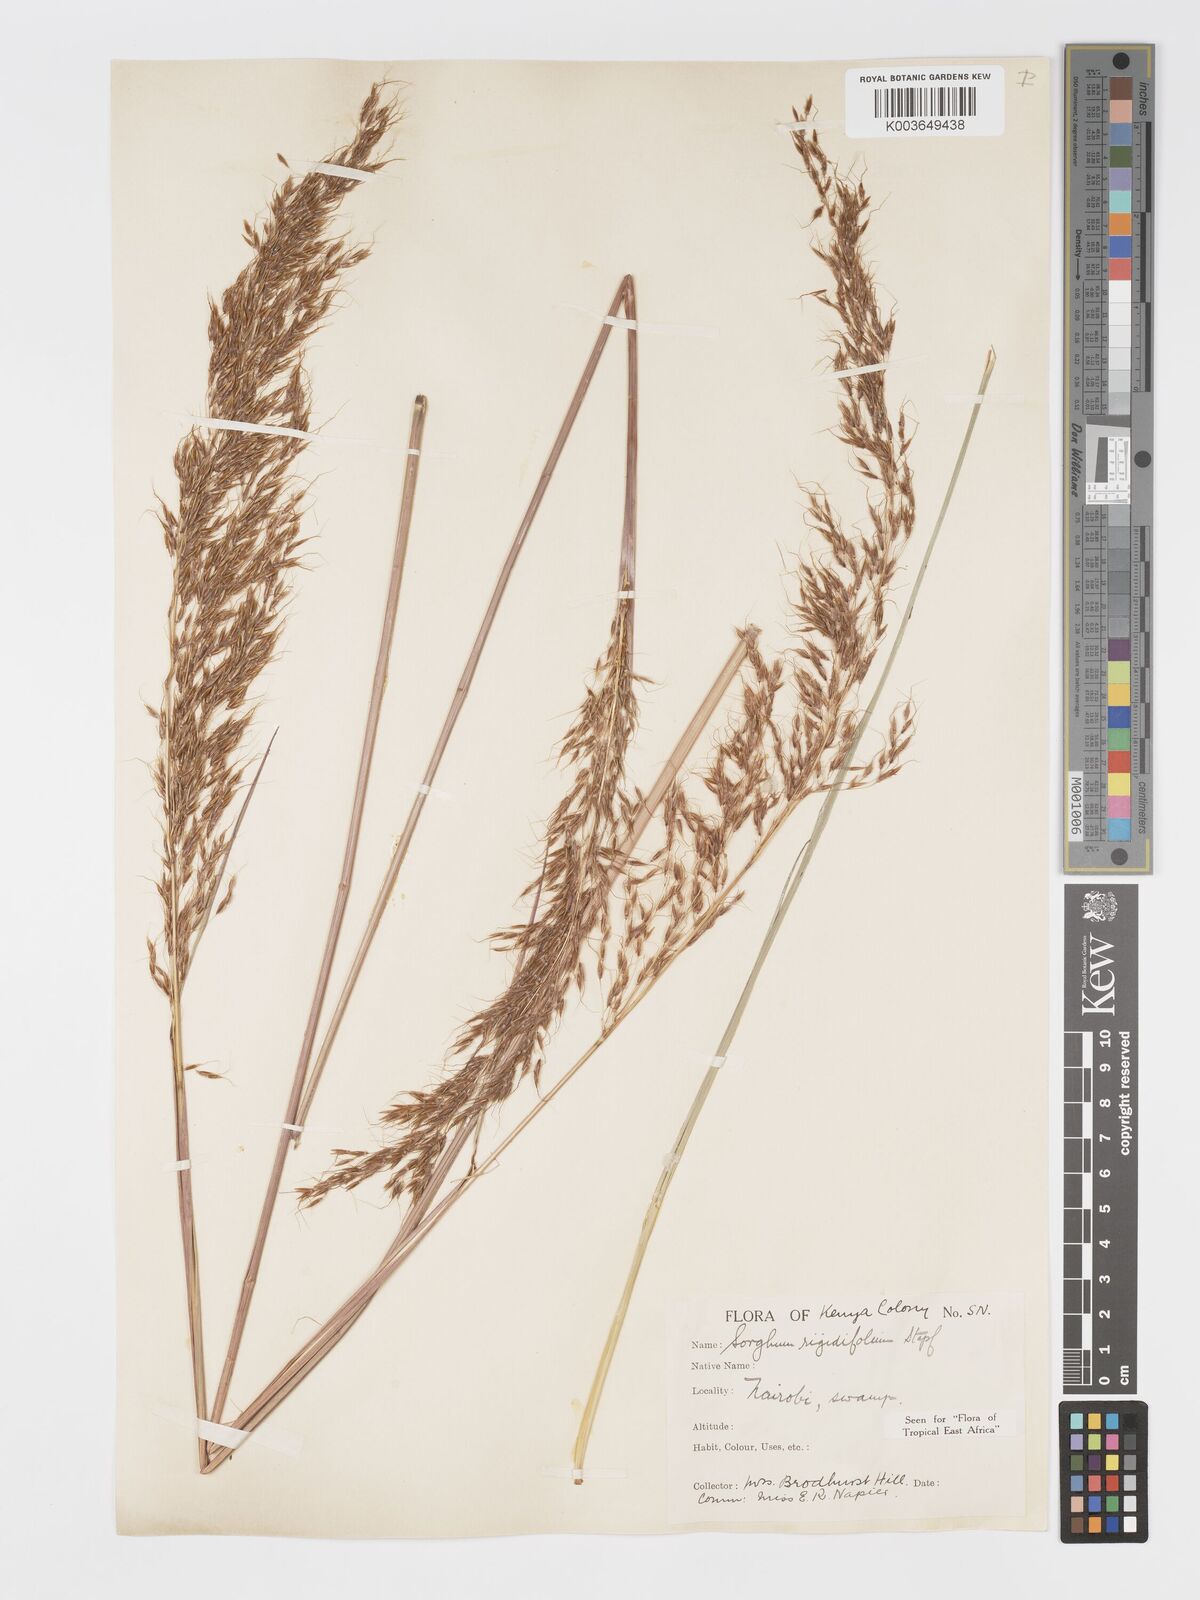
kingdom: Plantae
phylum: Tracheophyta
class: Liliopsida
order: Poales
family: Poaceae
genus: Sorghastrum
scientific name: Sorghastrum stipoides
